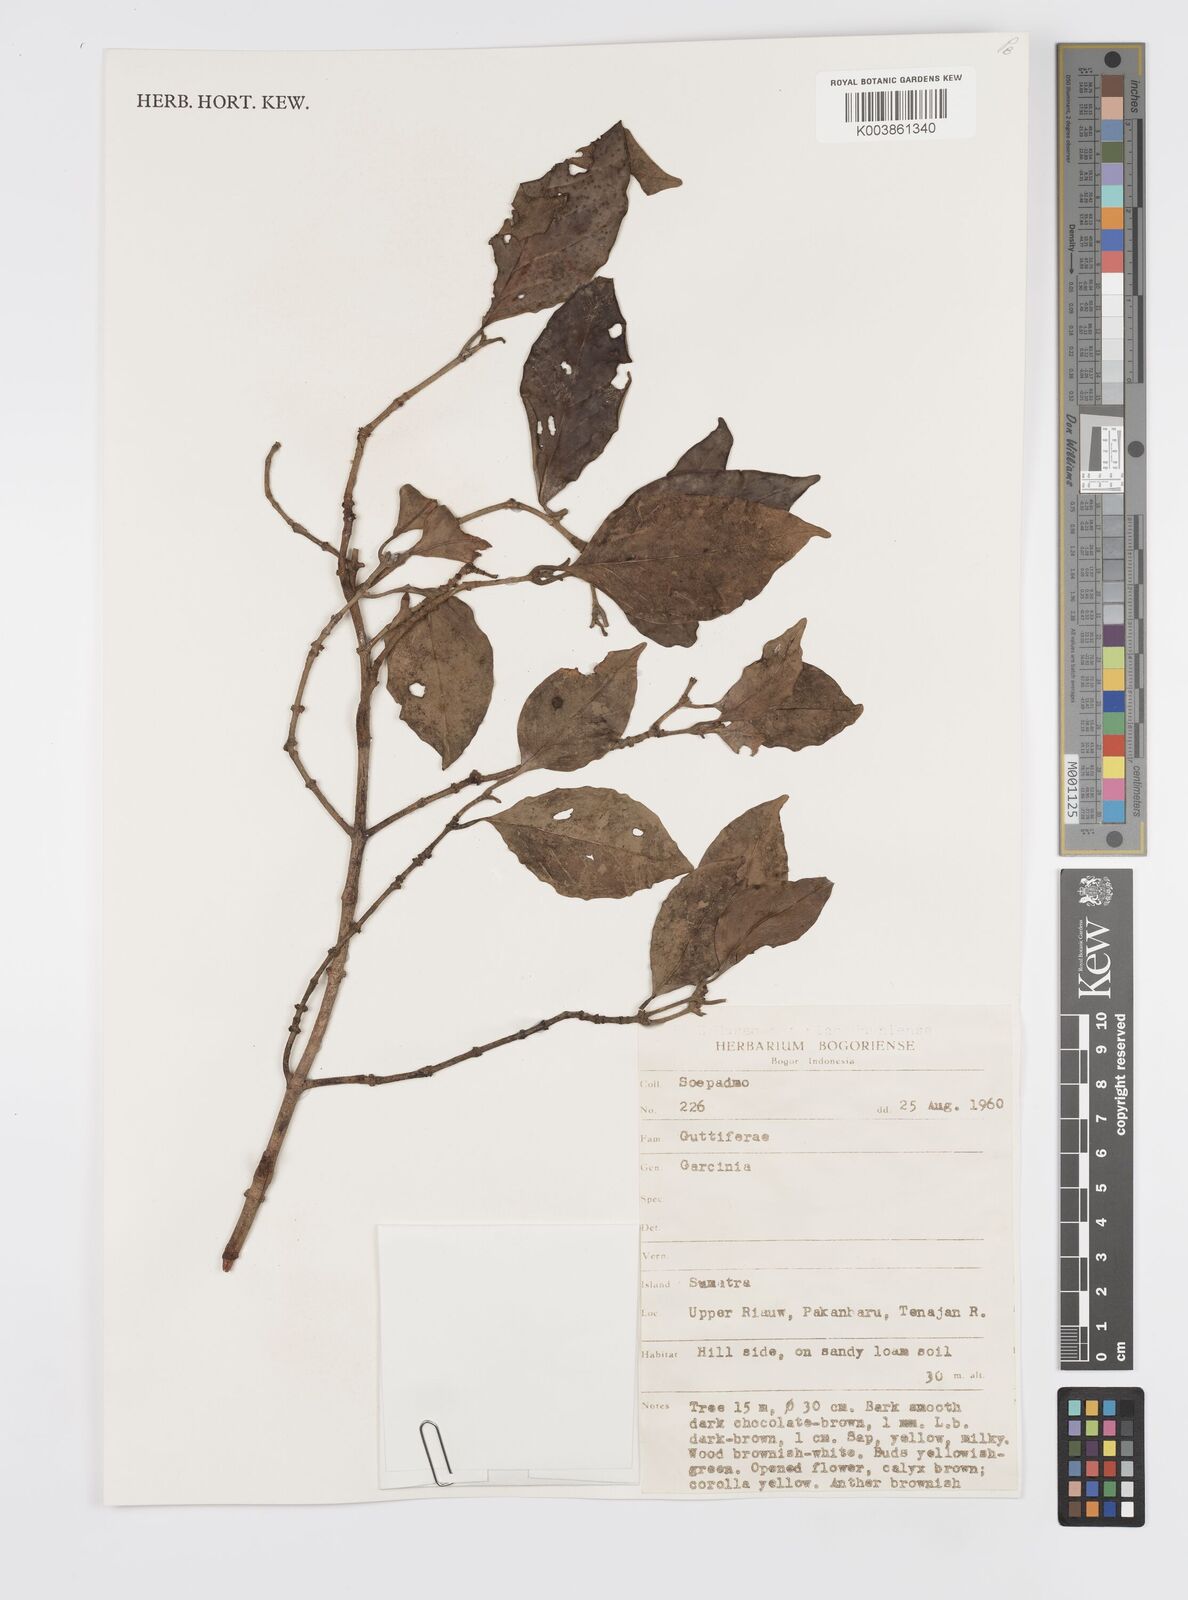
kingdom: Plantae
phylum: Tracheophyta
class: Magnoliopsida
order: Malpighiales
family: Clusiaceae
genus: Garcinia
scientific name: Garcinia
